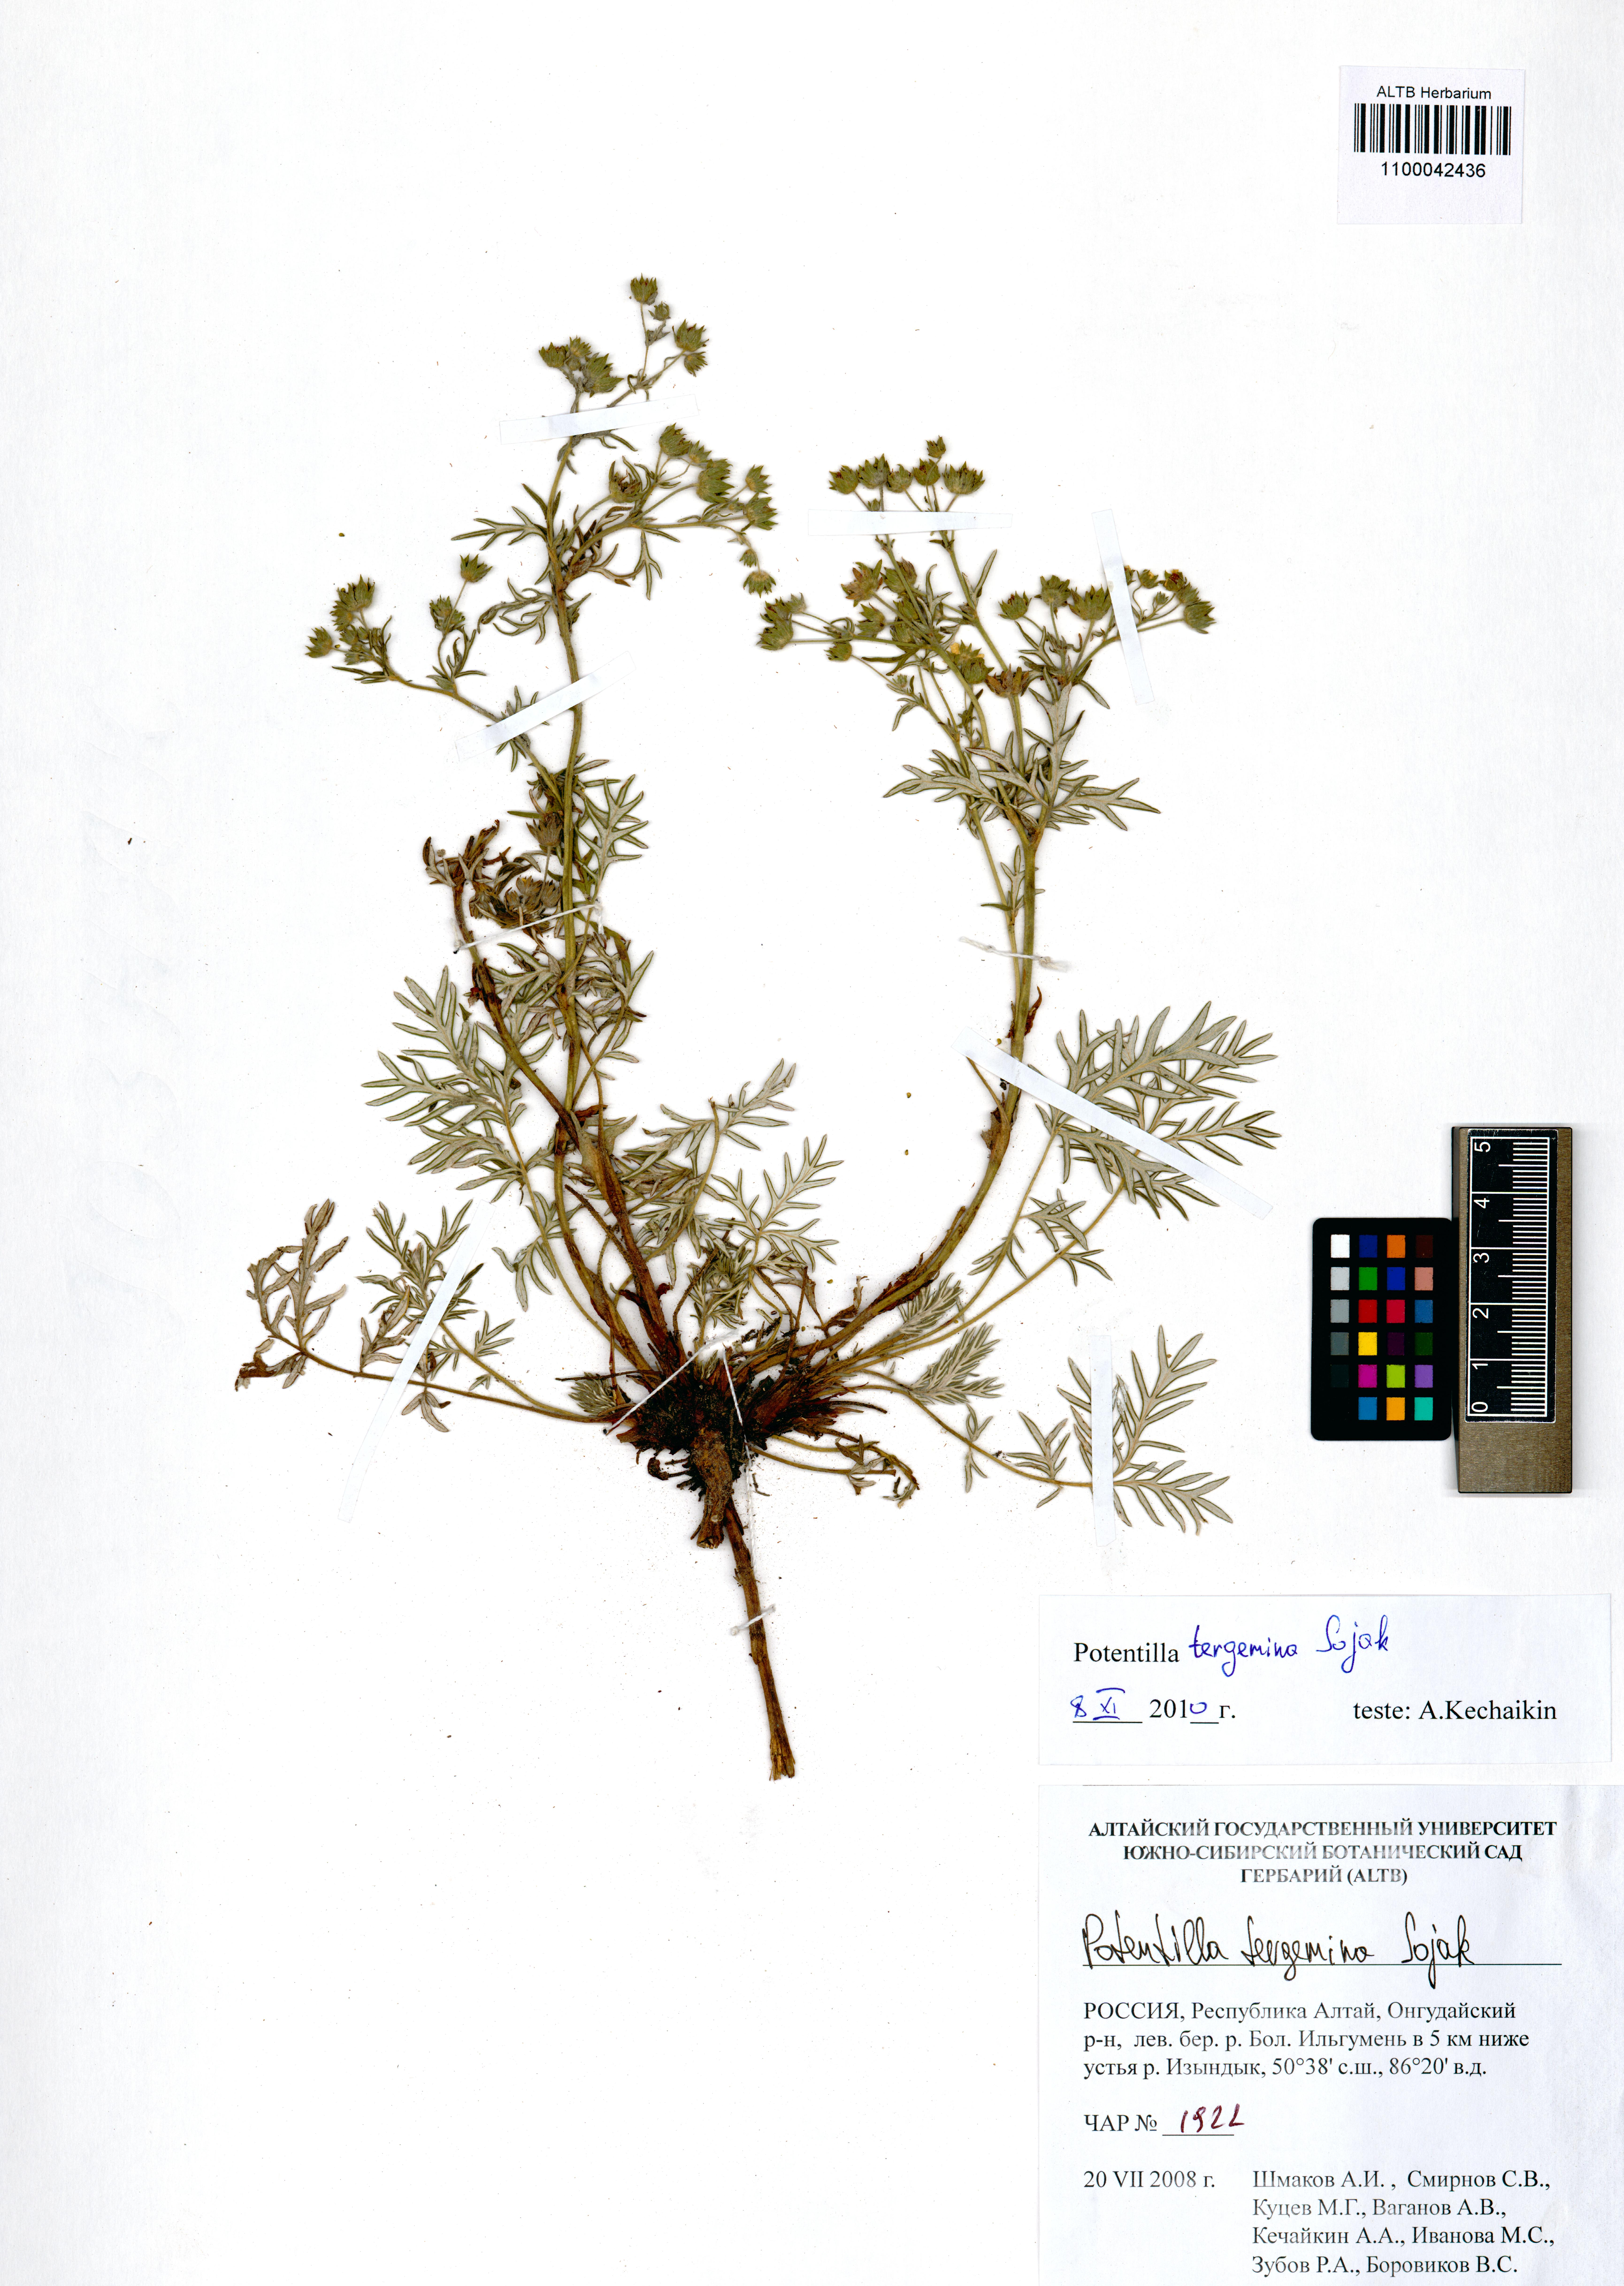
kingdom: Plantae
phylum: Tracheophyta
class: Magnoliopsida
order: Rosales
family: Rosaceae
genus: Potentilla
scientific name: Potentilla tergemina
